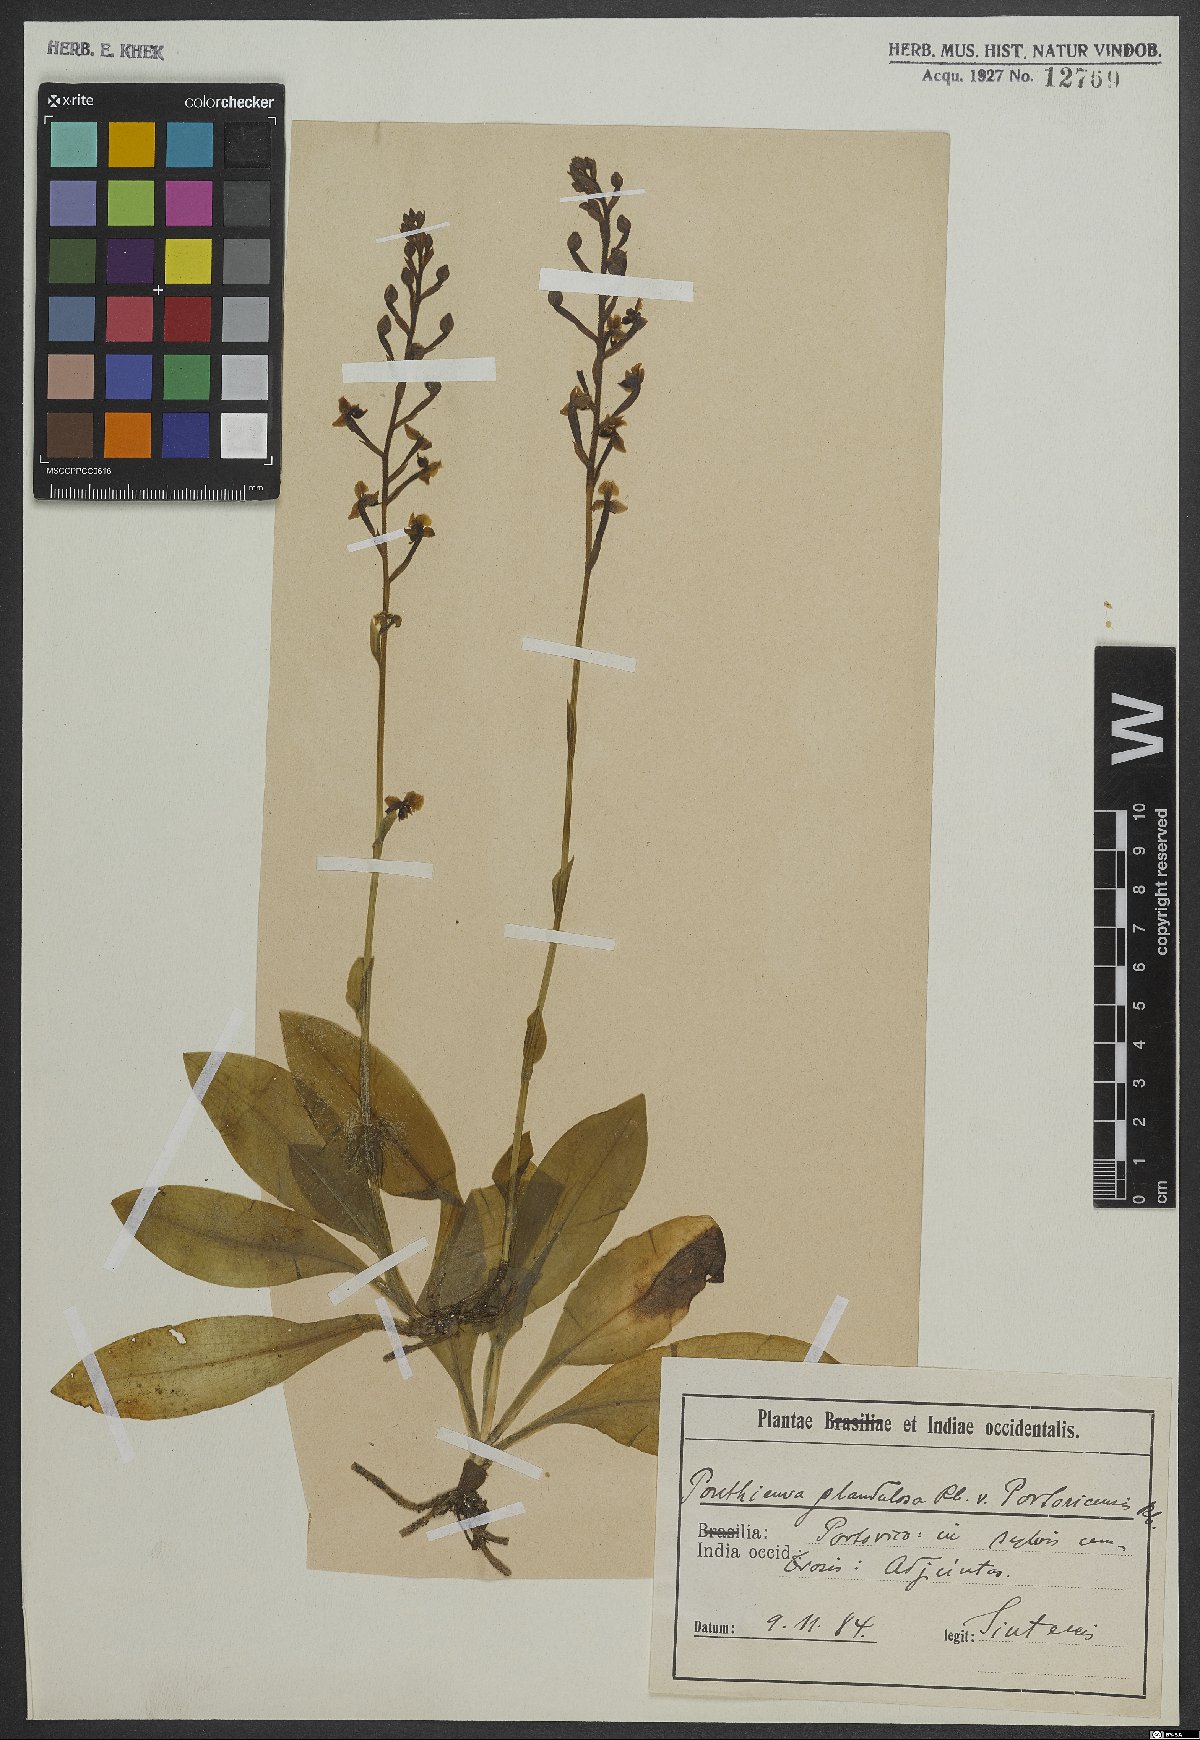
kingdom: Plantae
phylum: Tracheophyta
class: Liliopsida
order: Asparagales
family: Orchidaceae
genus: Ponthieva
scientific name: Ponthieva glandulosa
